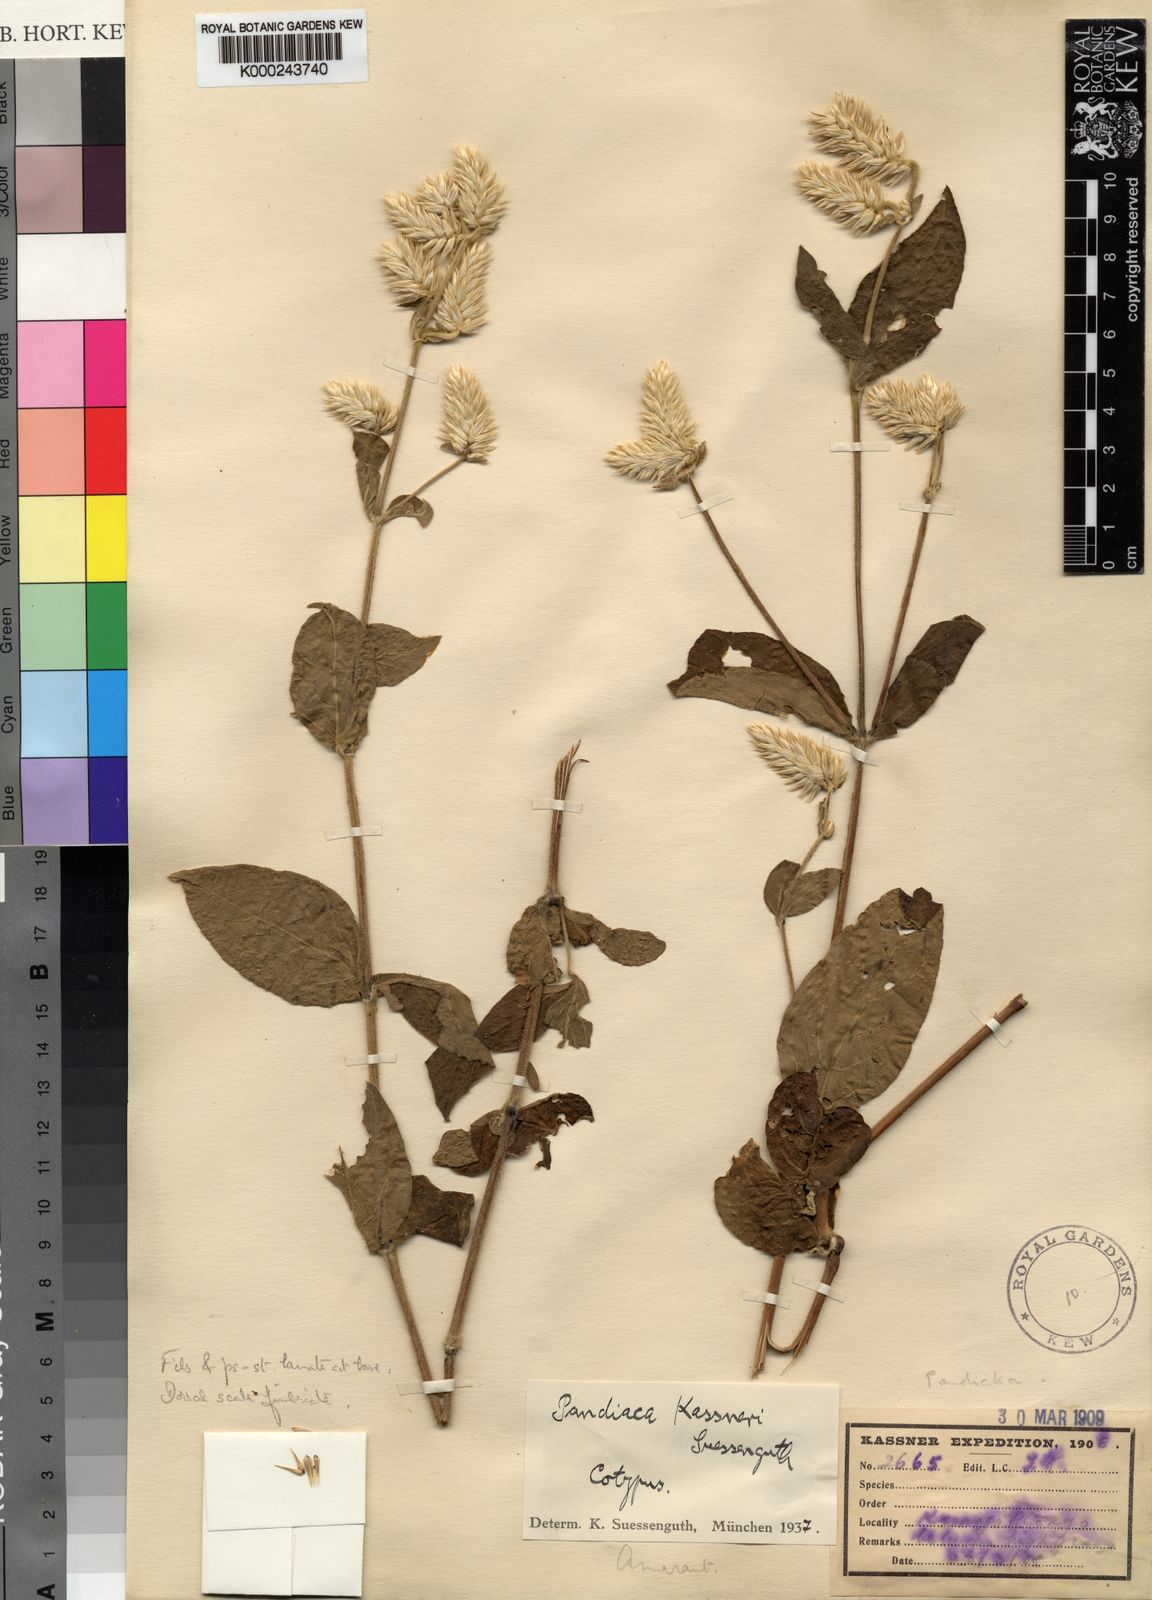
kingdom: Plantae
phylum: Tracheophyta
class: Magnoliopsida
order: Caryophyllales
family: Amaranthaceae
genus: Pandiaka
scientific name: Pandiaka carsonii
